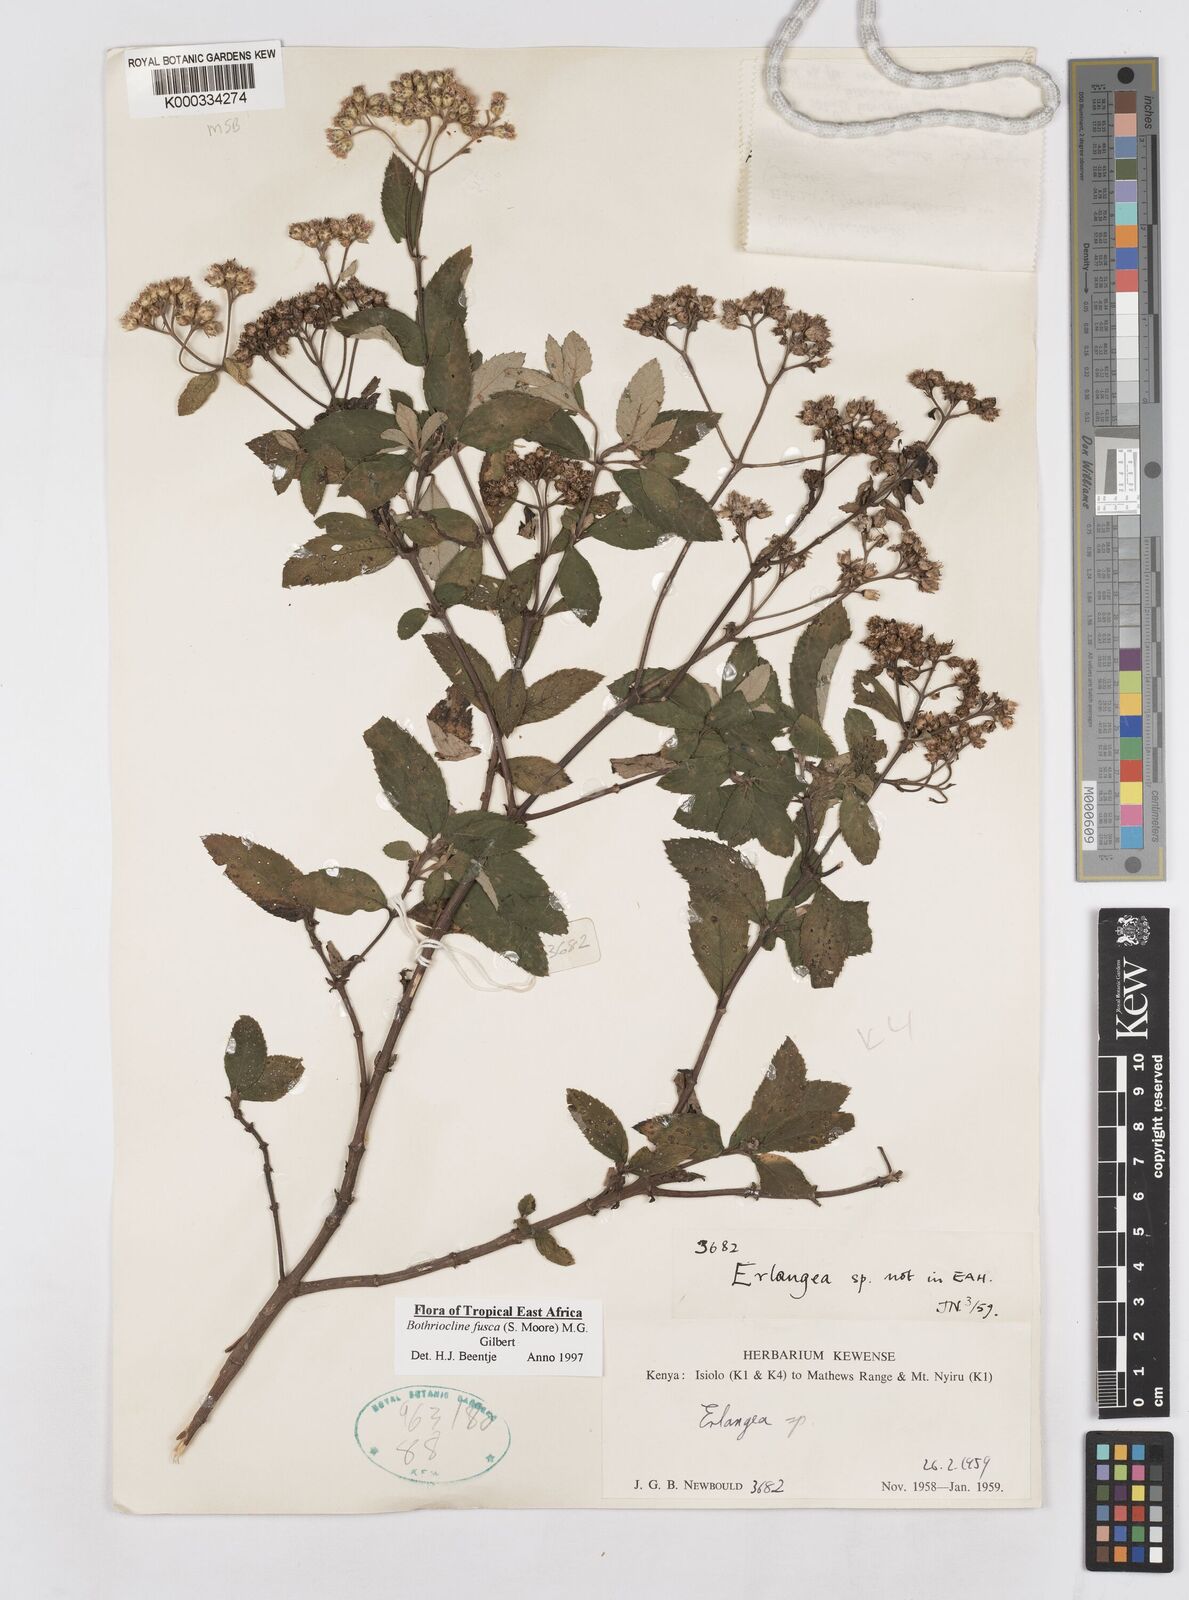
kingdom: Plantae
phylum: Tracheophyta
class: Magnoliopsida
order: Asterales
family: Asteraceae
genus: Bothriocline
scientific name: Bothriocline fusca
